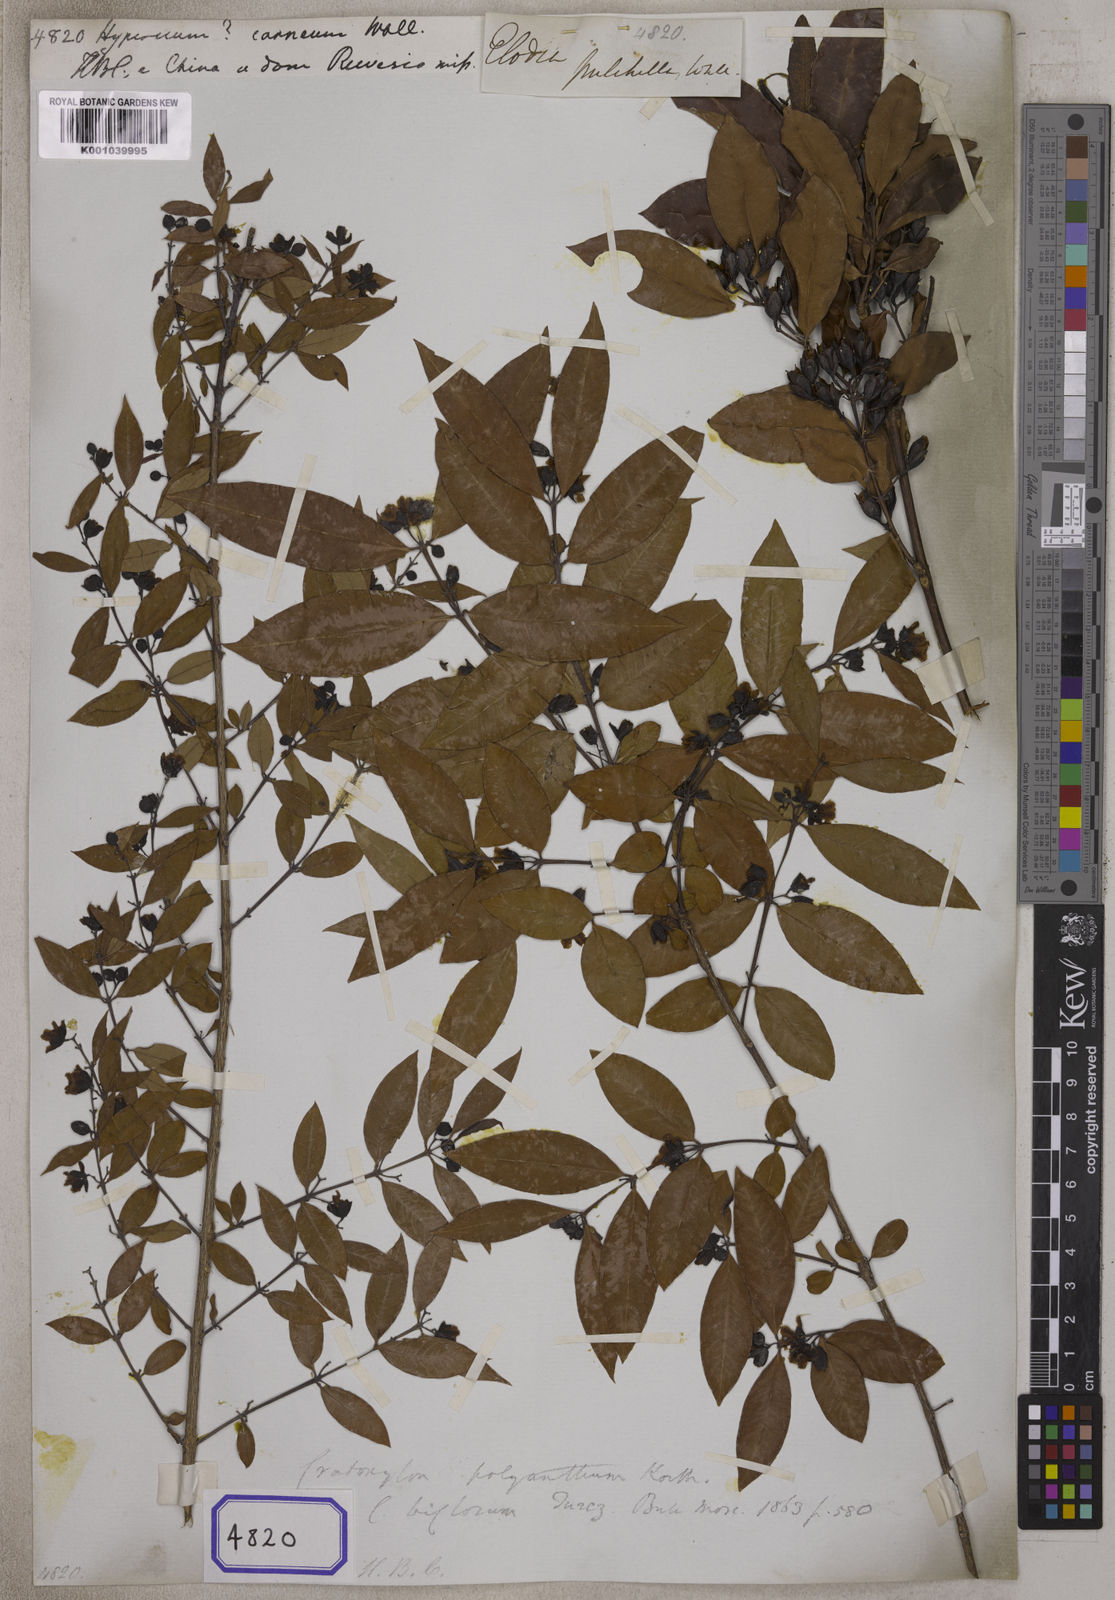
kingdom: Plantae
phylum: Tracheophyta
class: Magnoliopsida
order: Malpighiales
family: Hypericaceae
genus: Cratoxylum
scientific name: Cratoxylum cochinchinense
